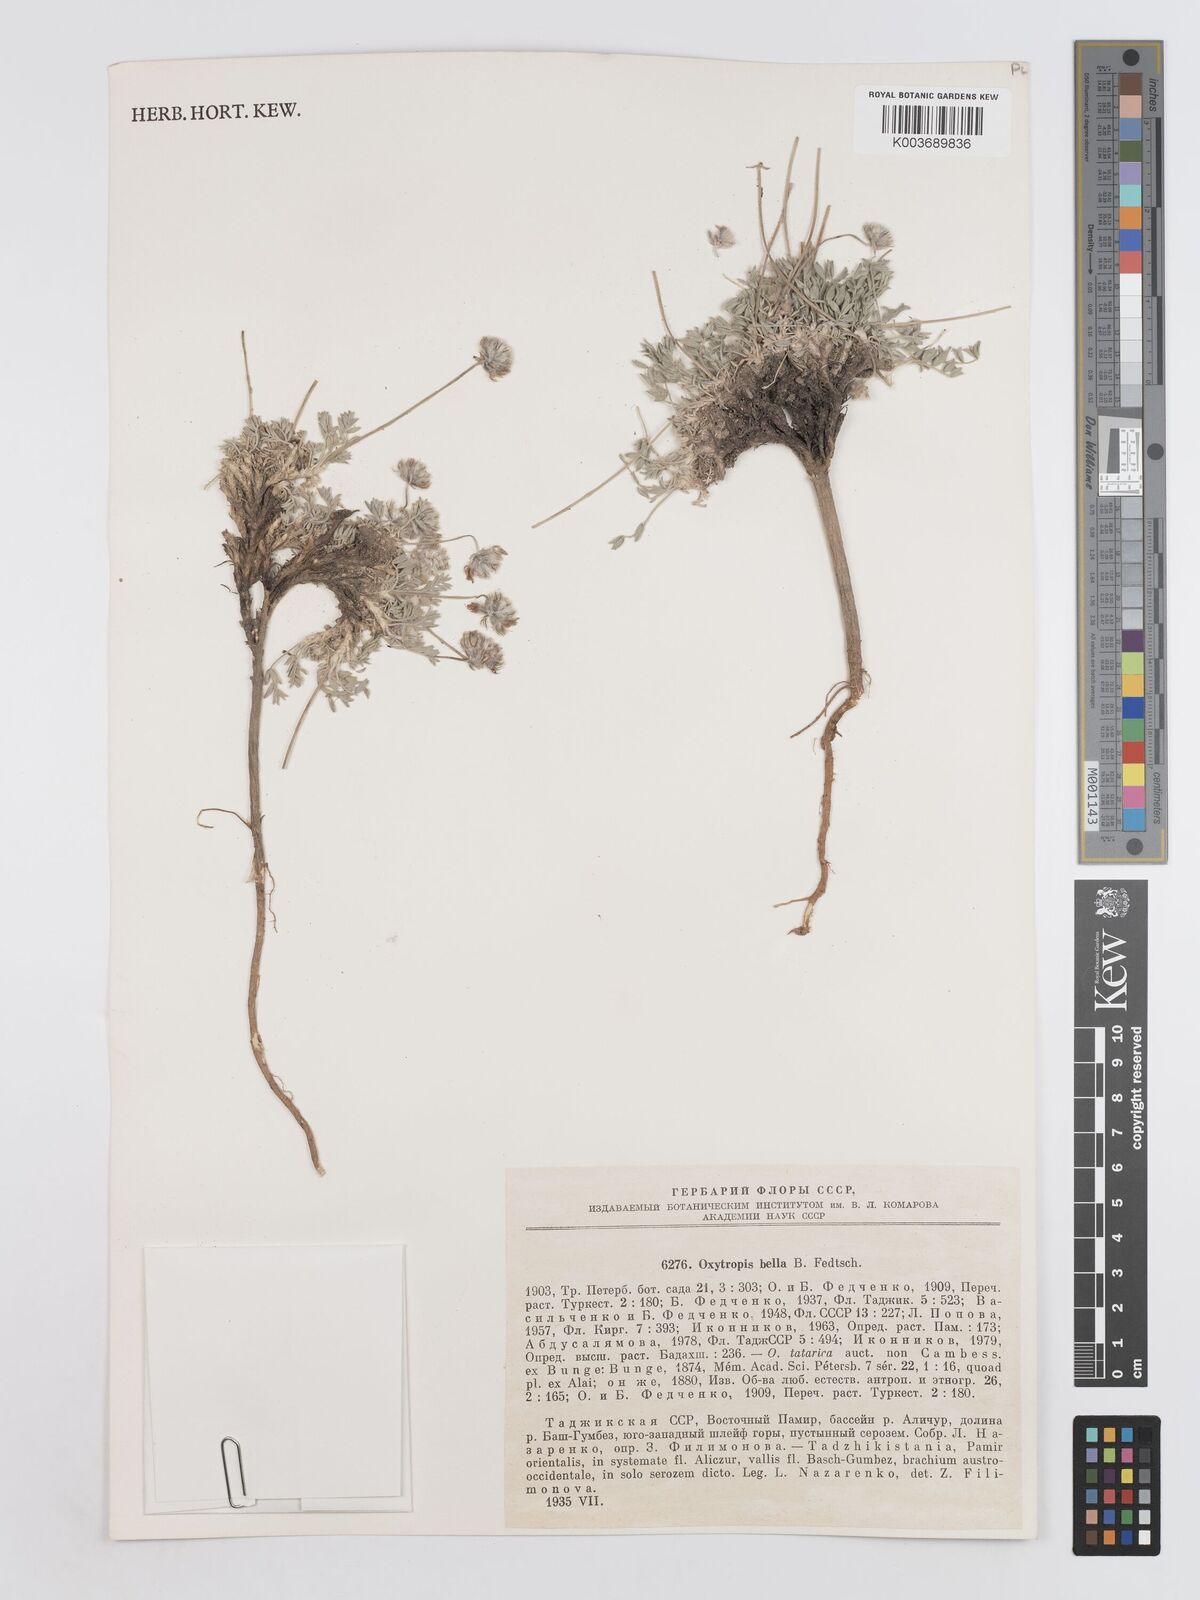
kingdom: Plantae
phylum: Tracheophyta
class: Magnoliopsida
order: Fabales
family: Fabaceae
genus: Oxytropis
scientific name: Oxytropis bella
